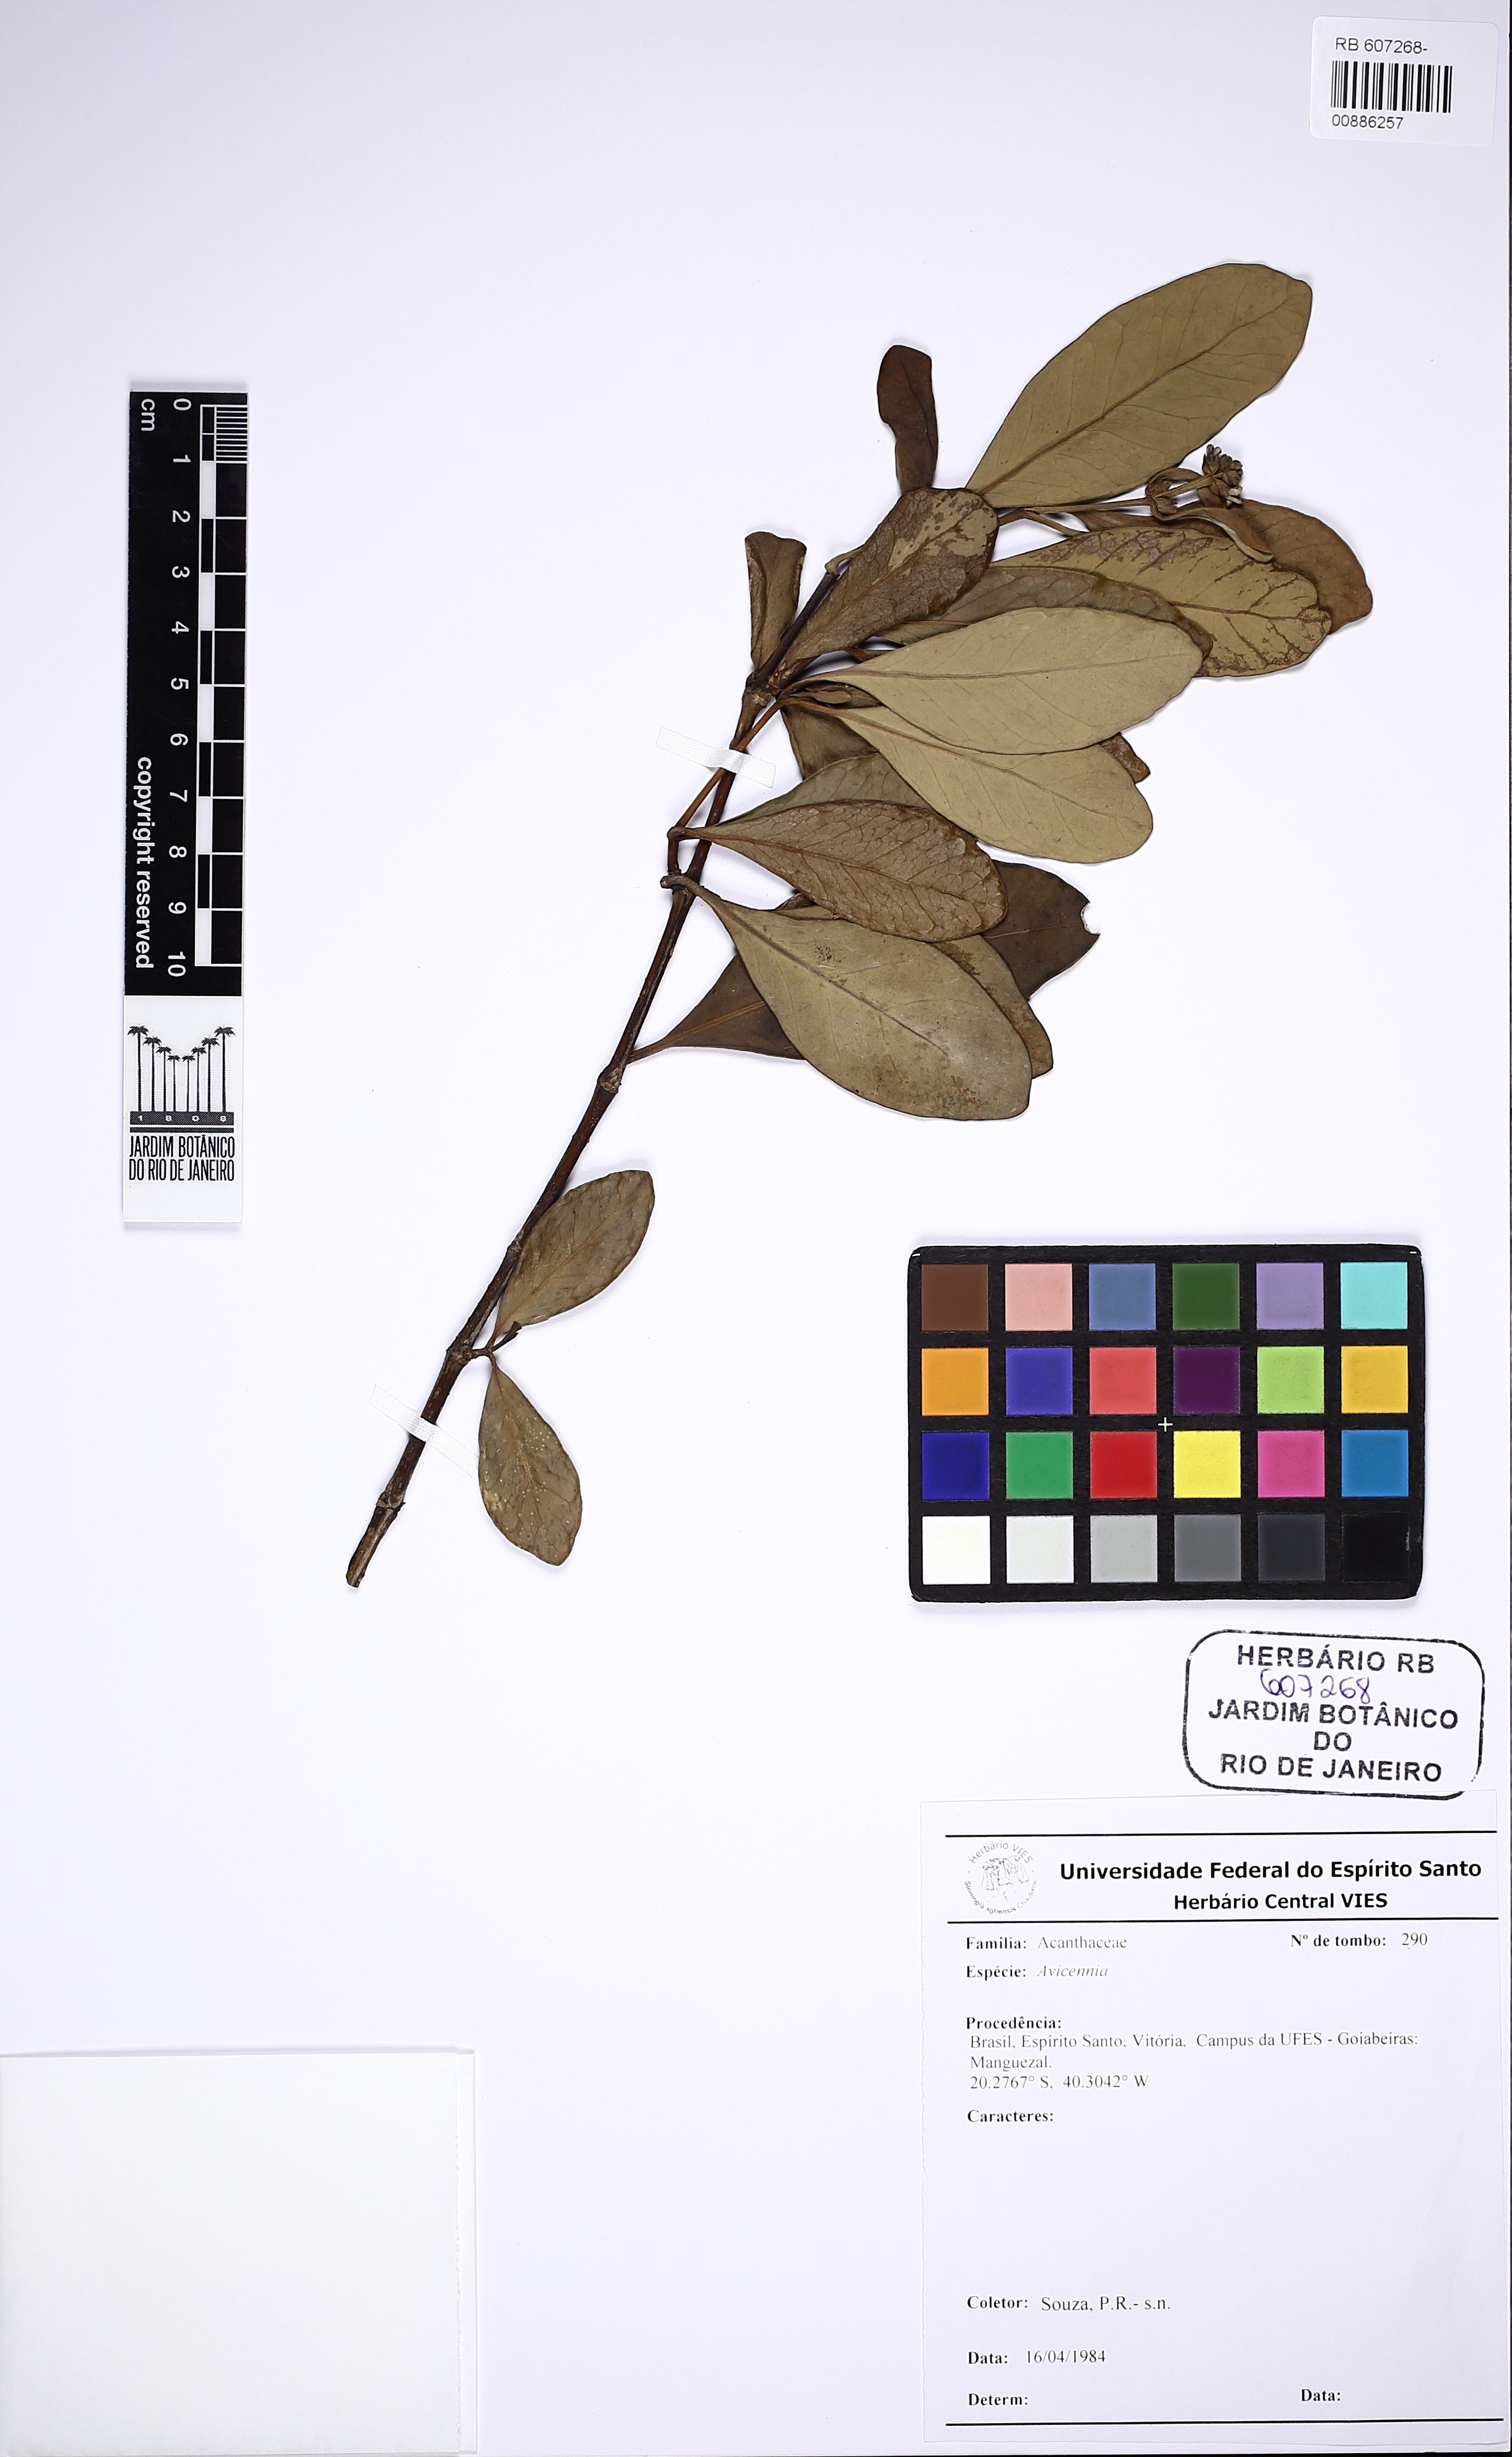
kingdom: Plantae
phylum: Tracheophyta
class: Magnoliopsida
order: Lamiales
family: Acanthaceae
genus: Avicennia
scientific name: Avicennia
